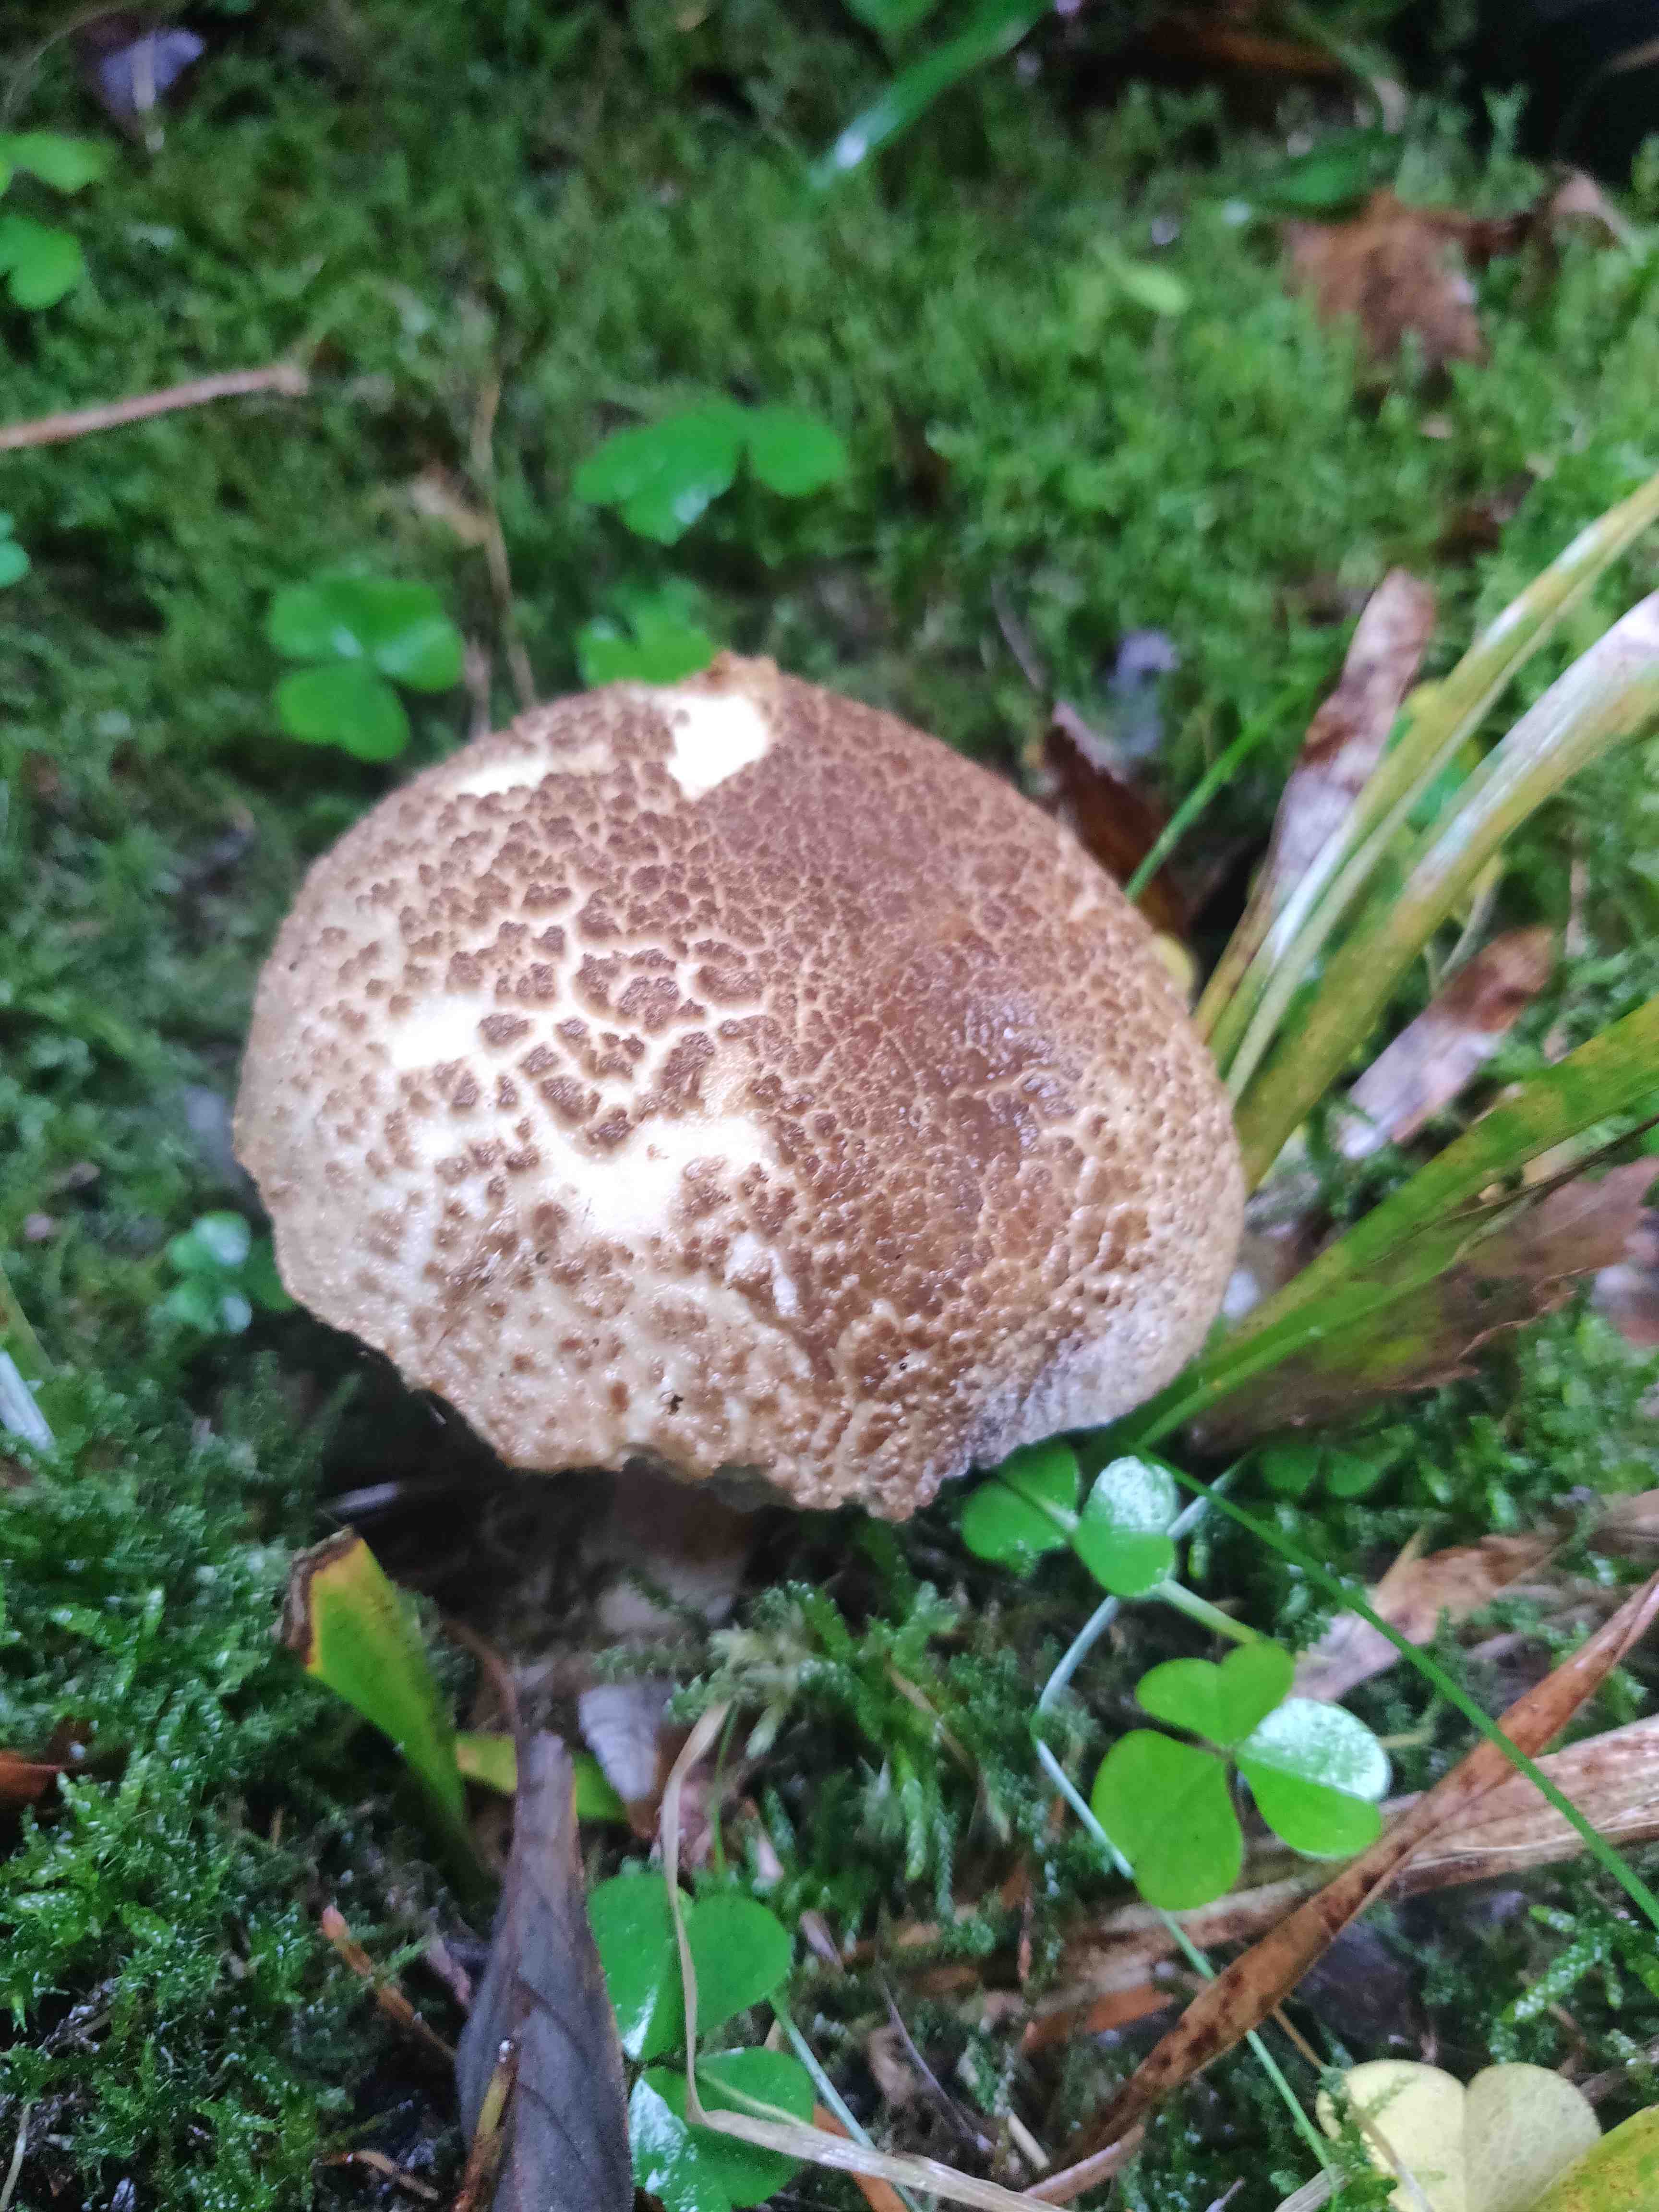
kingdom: Fungi
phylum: Basidiomycota
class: Agaricomycetes
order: Boletales
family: Boletaceae
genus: Xerocomellus
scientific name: Xerocomellus chrysenteron
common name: rødsprukken rørhat
